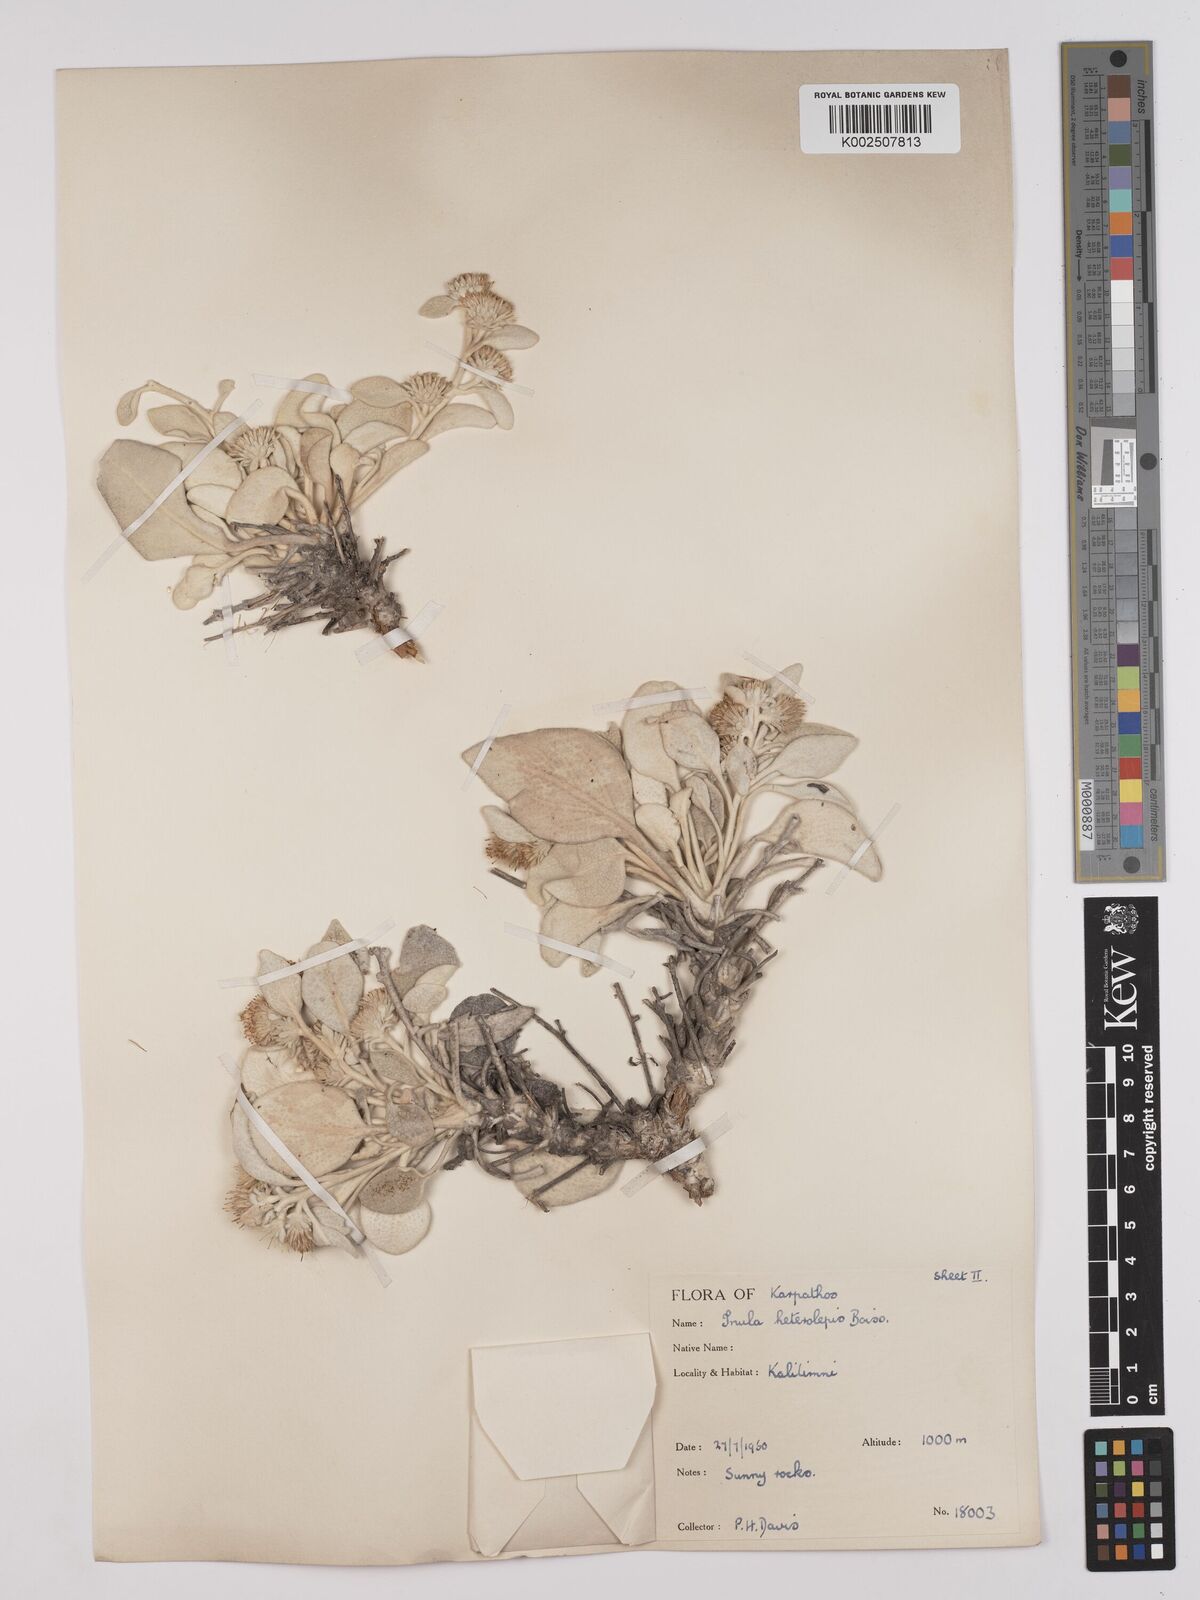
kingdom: Plantae
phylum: Tracheophyta
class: Magnoliopsida
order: Asterales
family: Asteraceae
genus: Pentanema
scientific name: Pentanema verbascifolium
